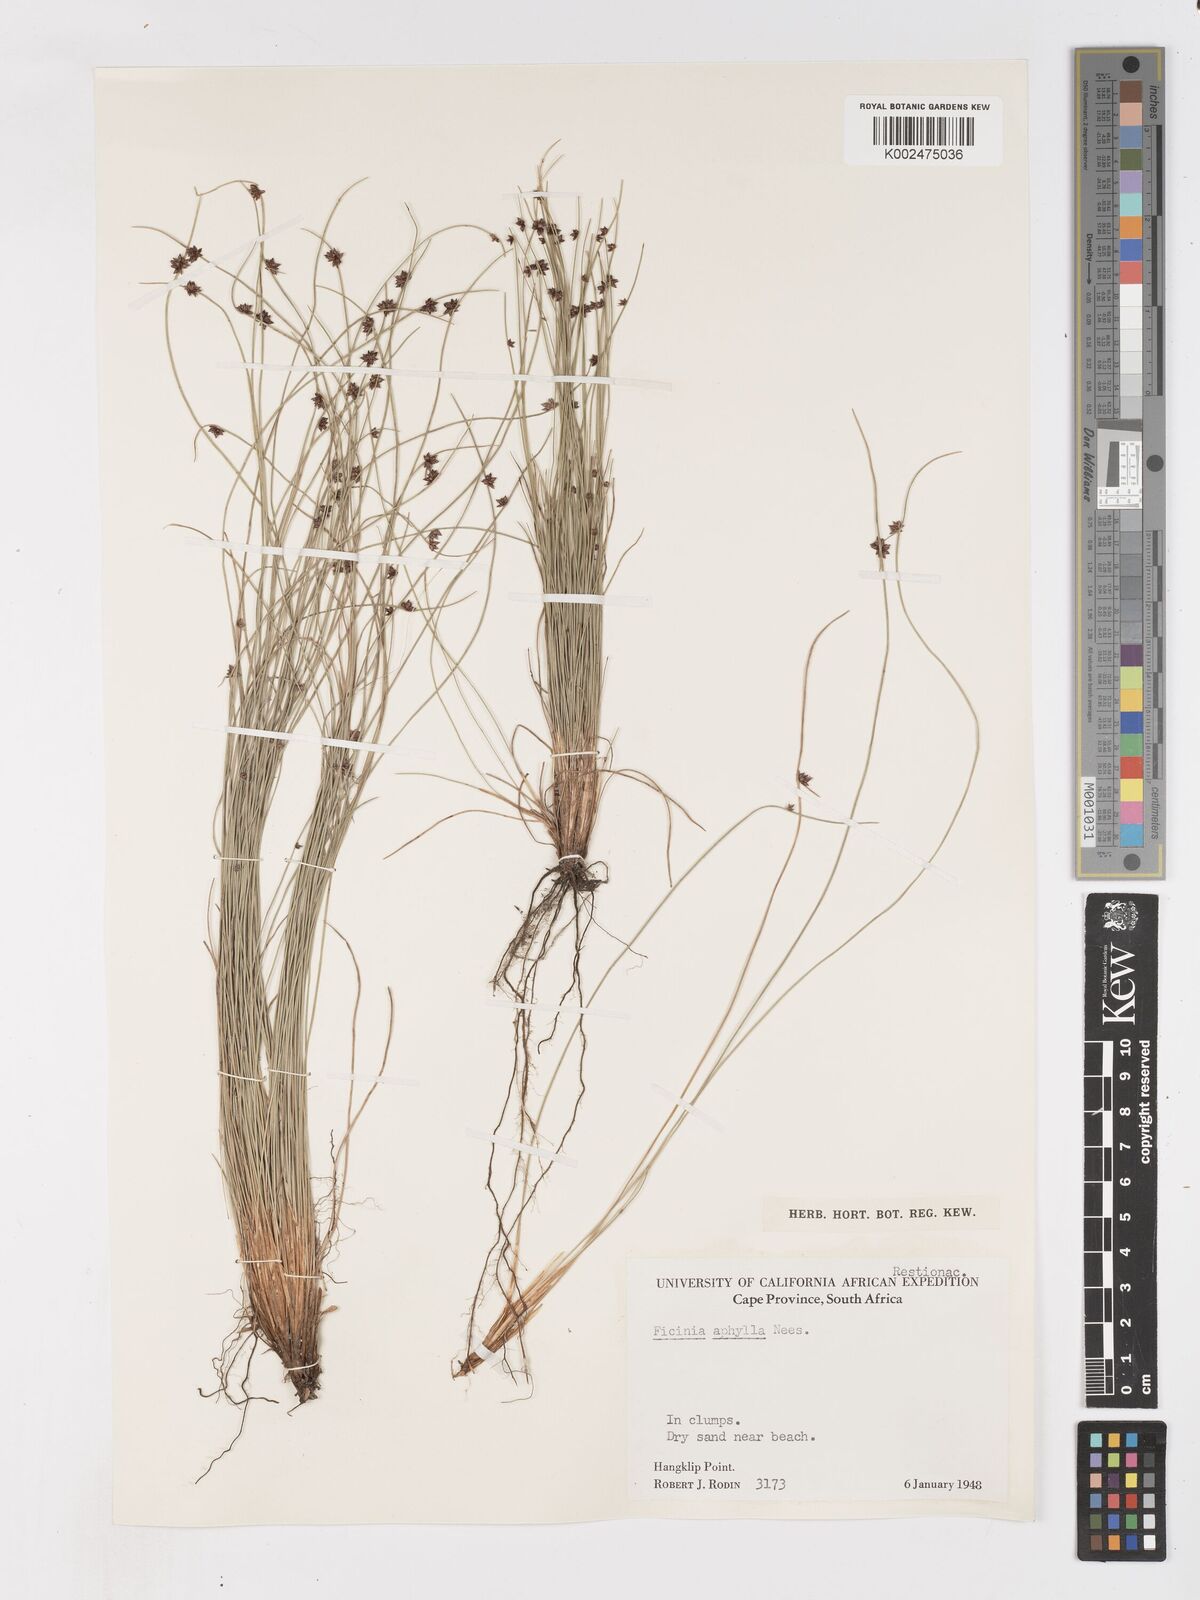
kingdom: Plantae
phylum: Tracheophyta
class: Liliopsida
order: Poales
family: Cyperaceae
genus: Ficinia
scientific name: Ficinia lateralis
